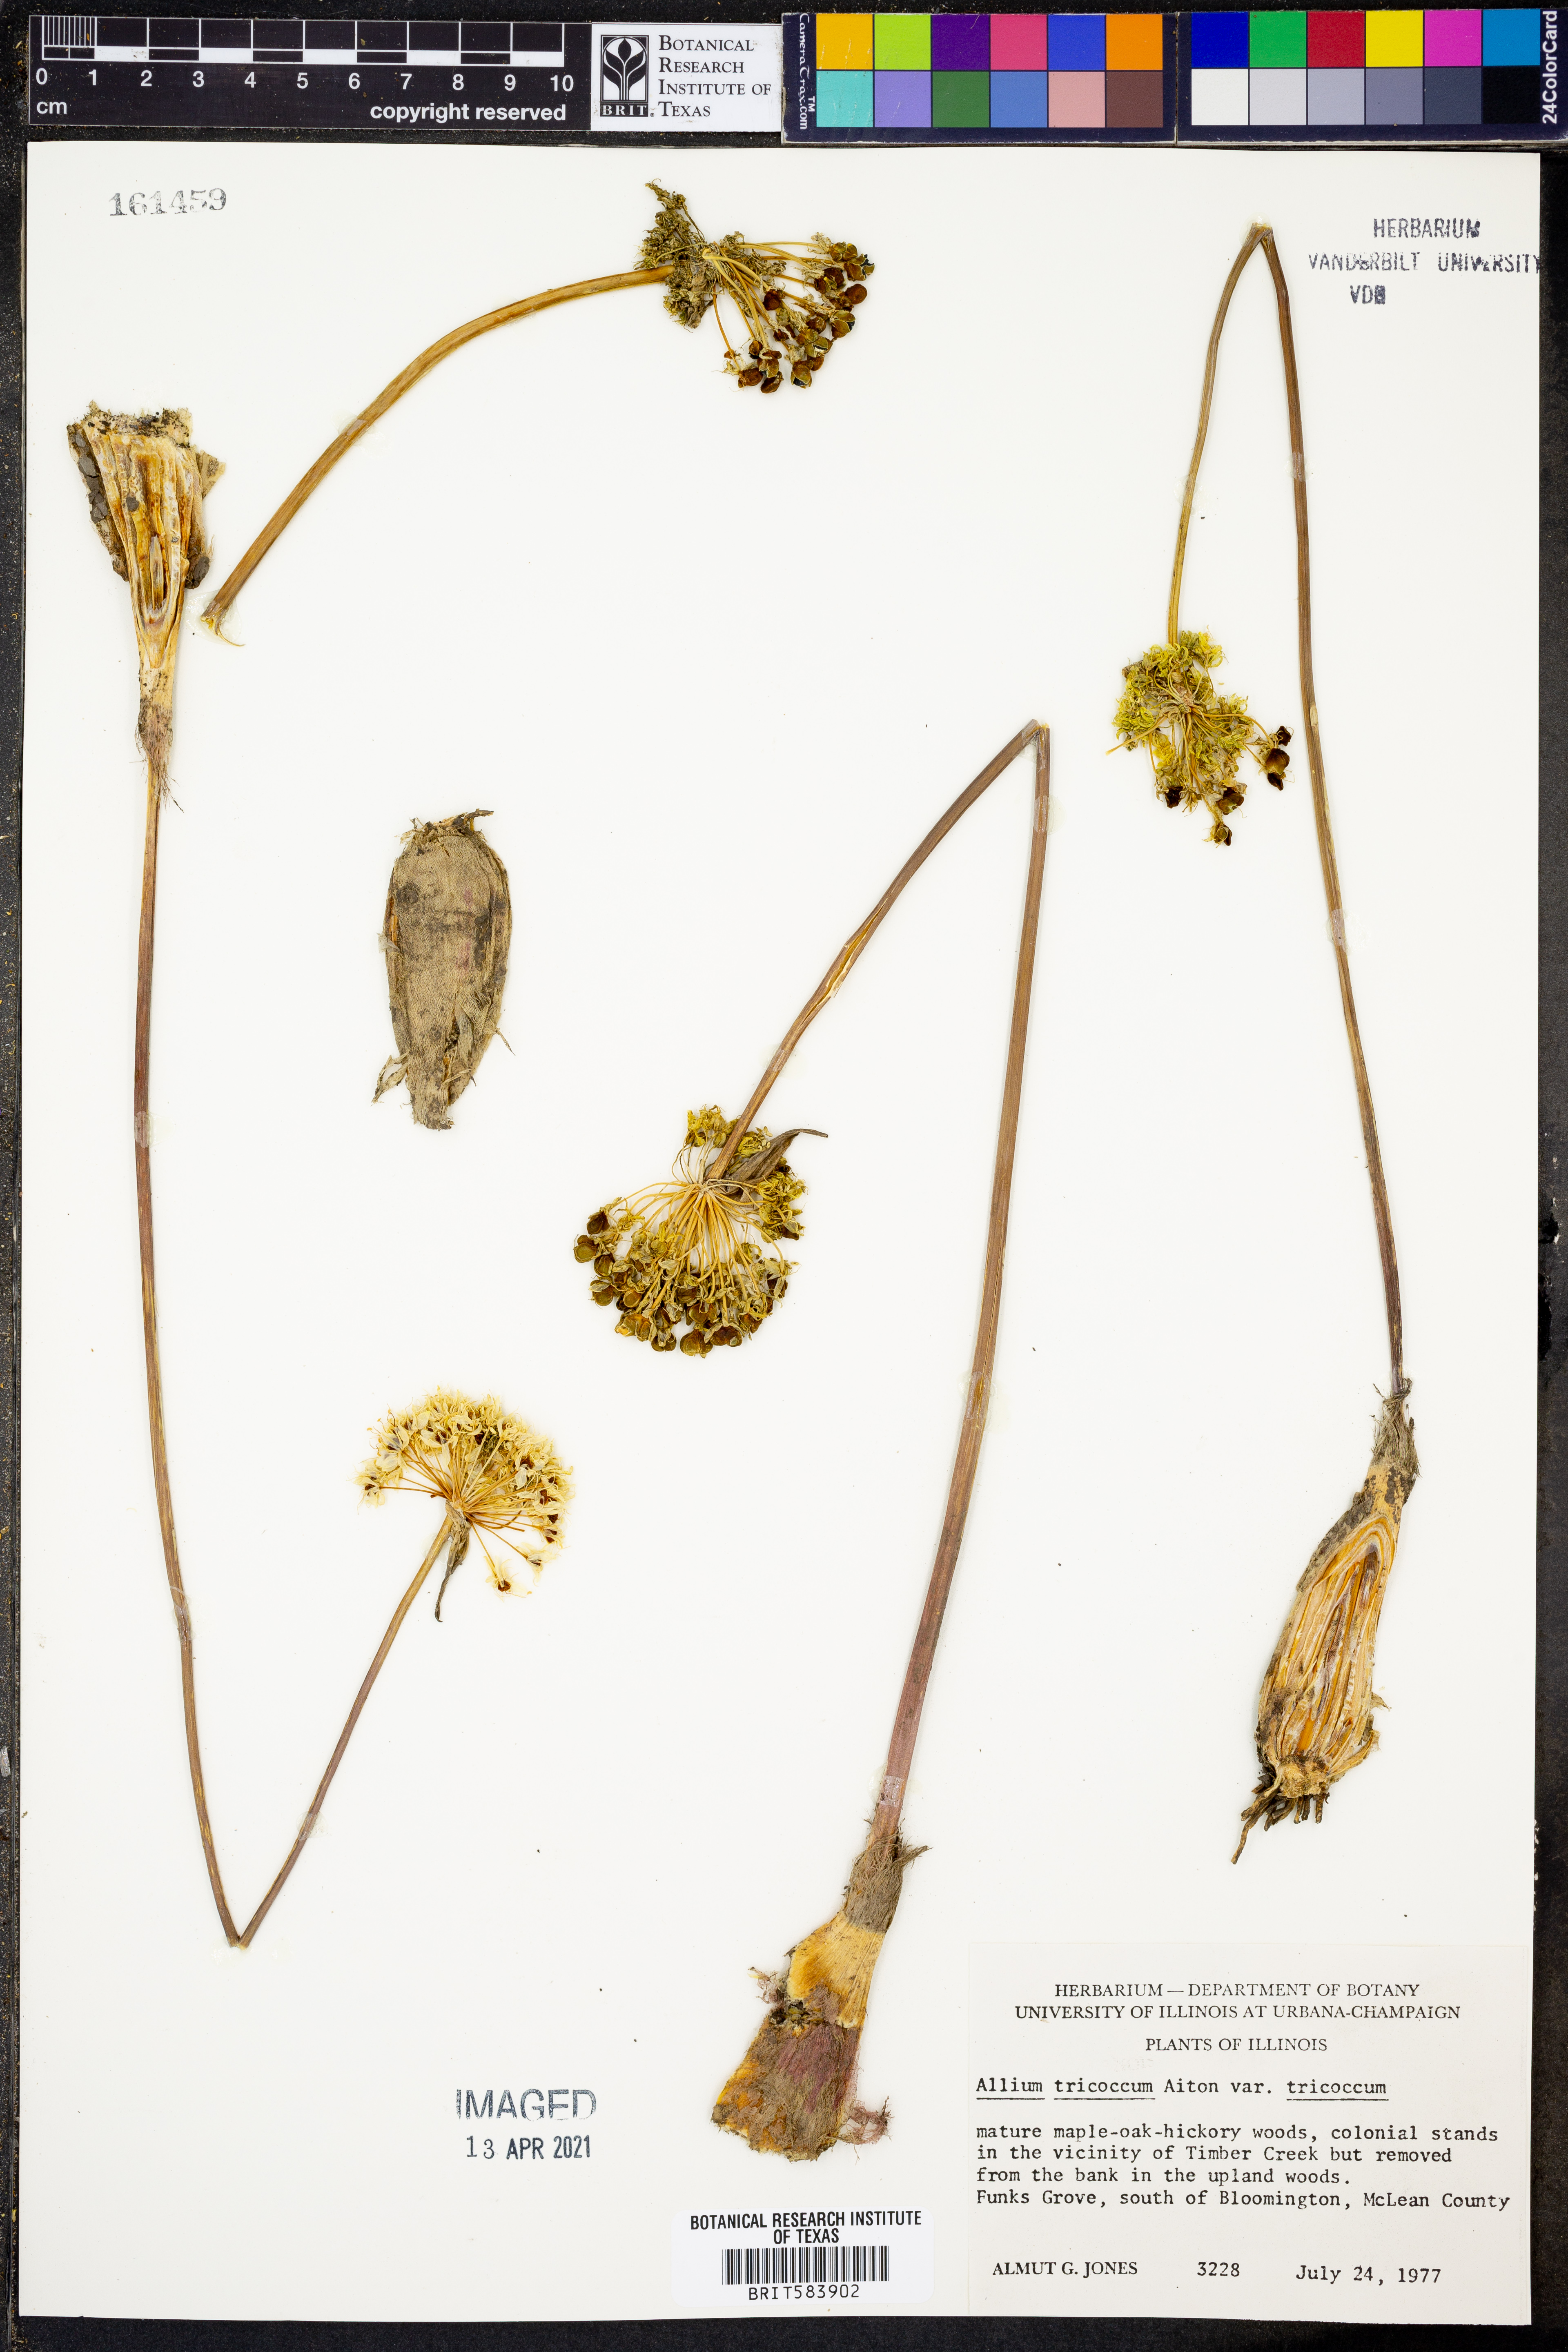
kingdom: Plantae
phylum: Tracheophyta
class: Liliopsida
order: Asparagales
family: Amaryllidaceae
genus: Allium
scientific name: Allium tricoccum
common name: Ramp
